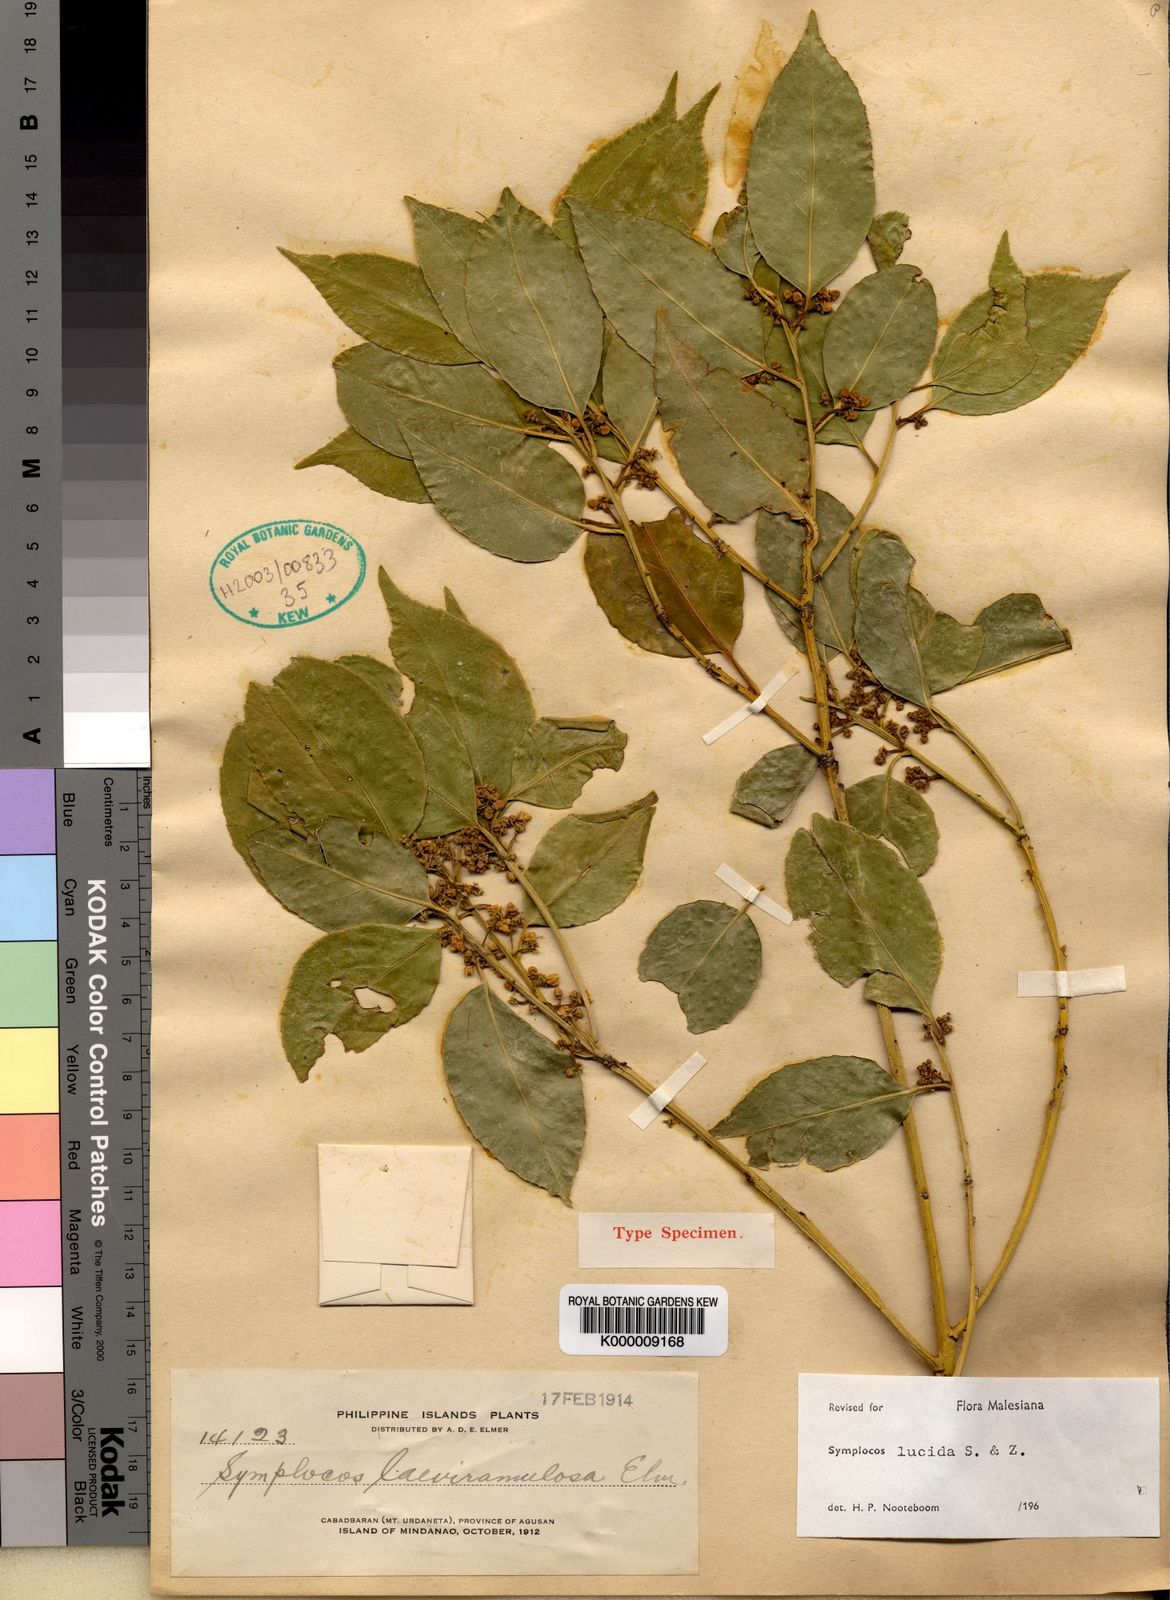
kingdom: Plantae
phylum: Tracheophyta
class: Magnoliopsida
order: Ericales
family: Symplocaceae
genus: Symplocos
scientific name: Symplocos
